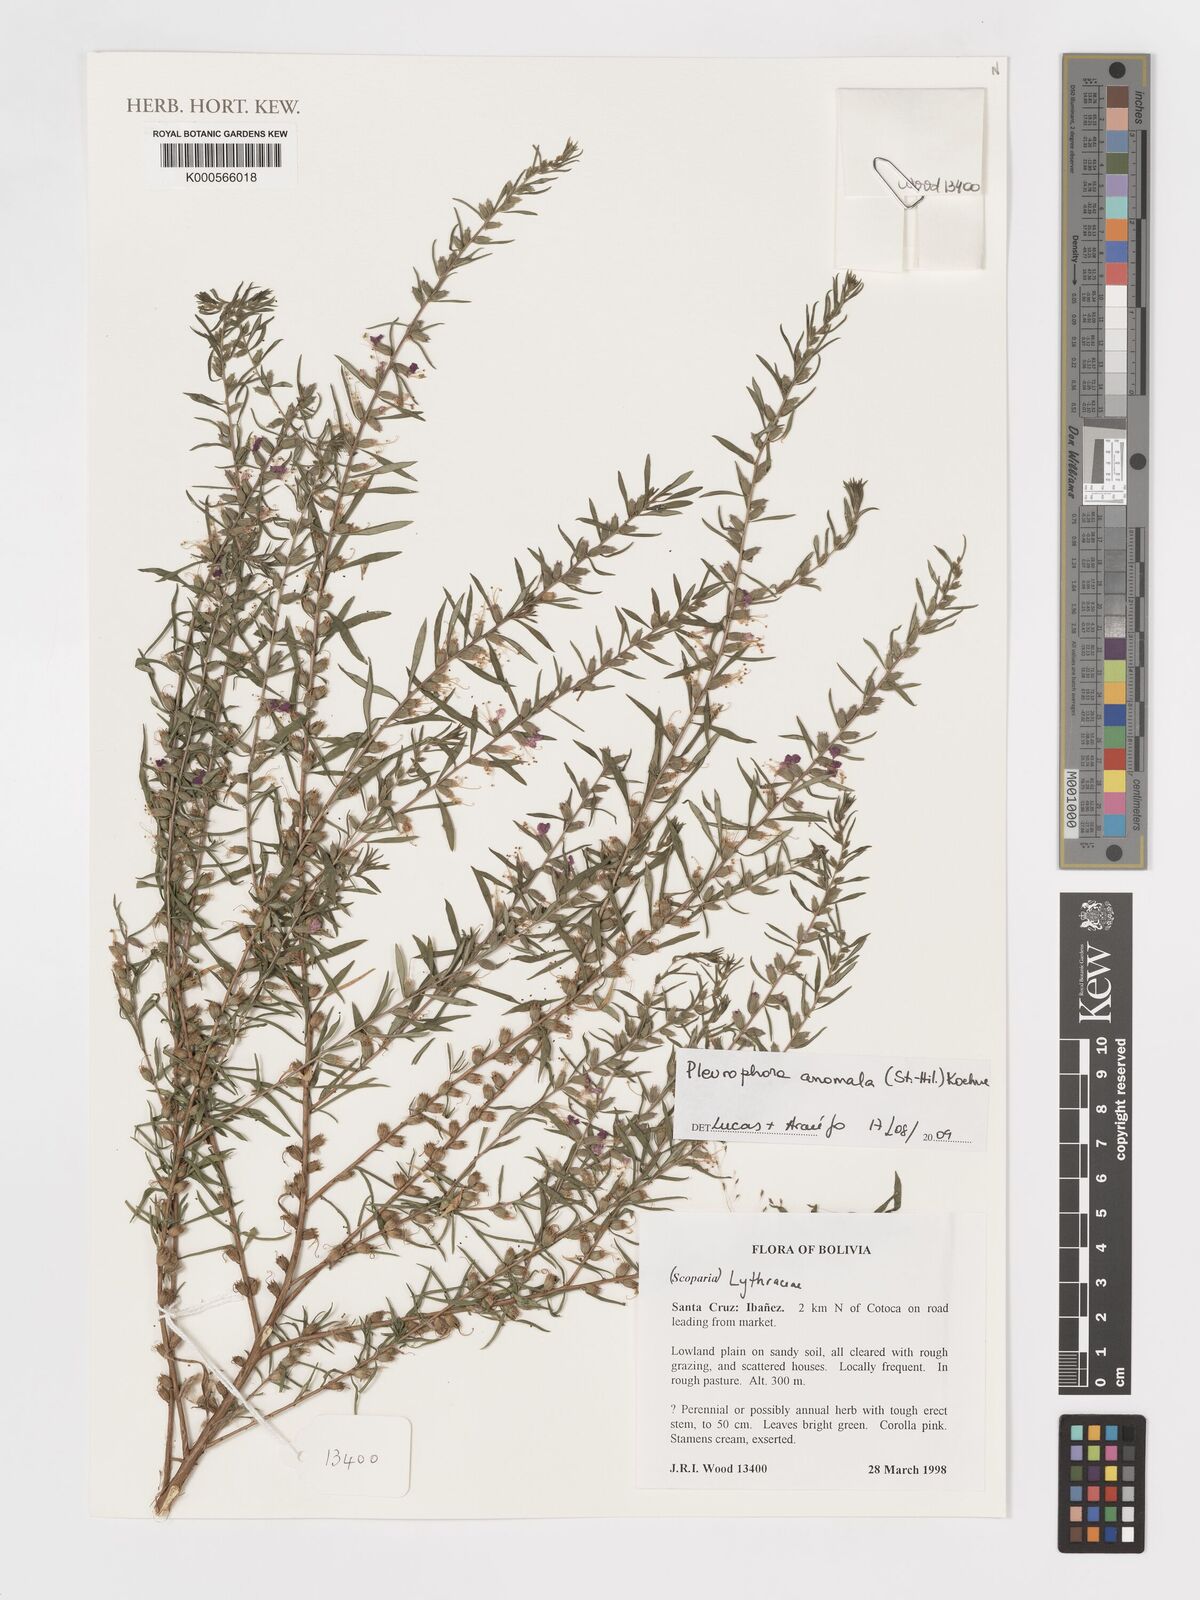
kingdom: Plantae
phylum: Tracheophyta
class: Magnoliopsida
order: Myrtales
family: Lythraceae
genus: Pleurophora
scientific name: Pleurophora anomala
